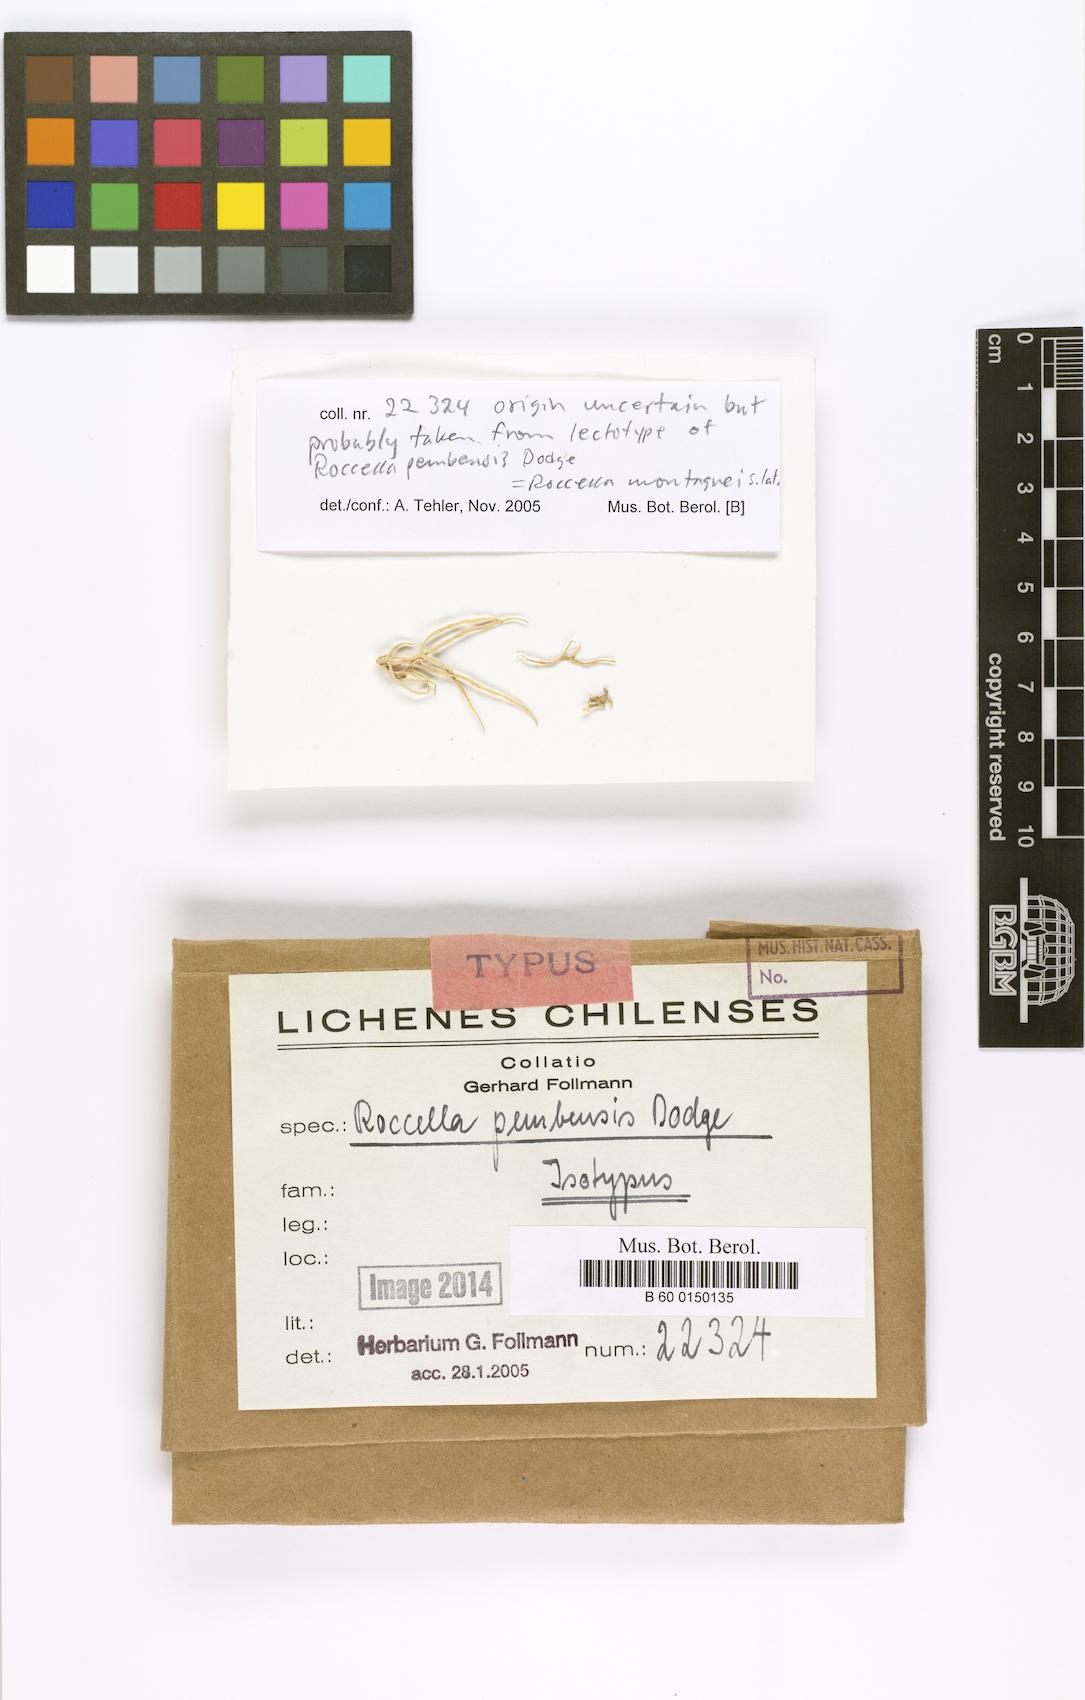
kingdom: Fungi
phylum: Ascomycota
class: Arthoniomycetes
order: Arthoniales
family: Roccellaceae
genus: Roccella
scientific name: Roccella
